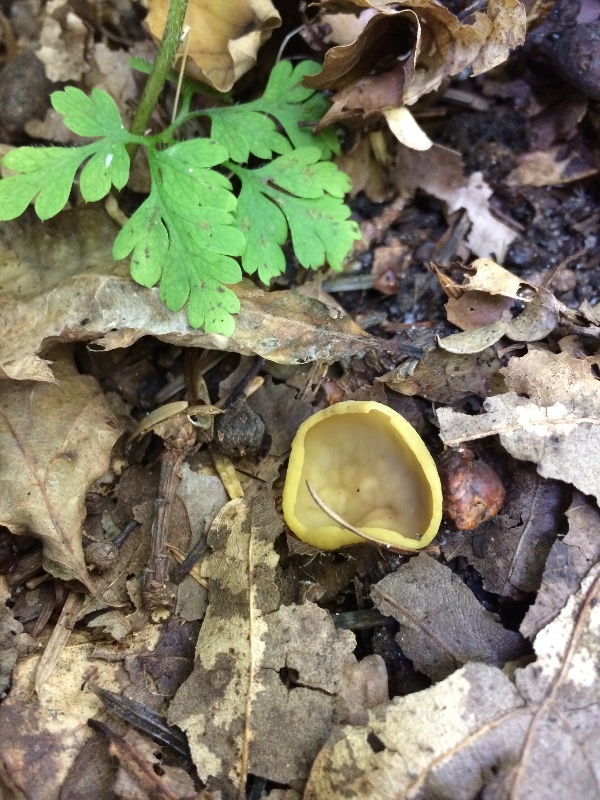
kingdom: Fungi
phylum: Ascomycota
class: Pezizomycetes
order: Pezizales
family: Otideaceae
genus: Otidea
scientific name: Otidea phlebophora
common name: året ørebæger
